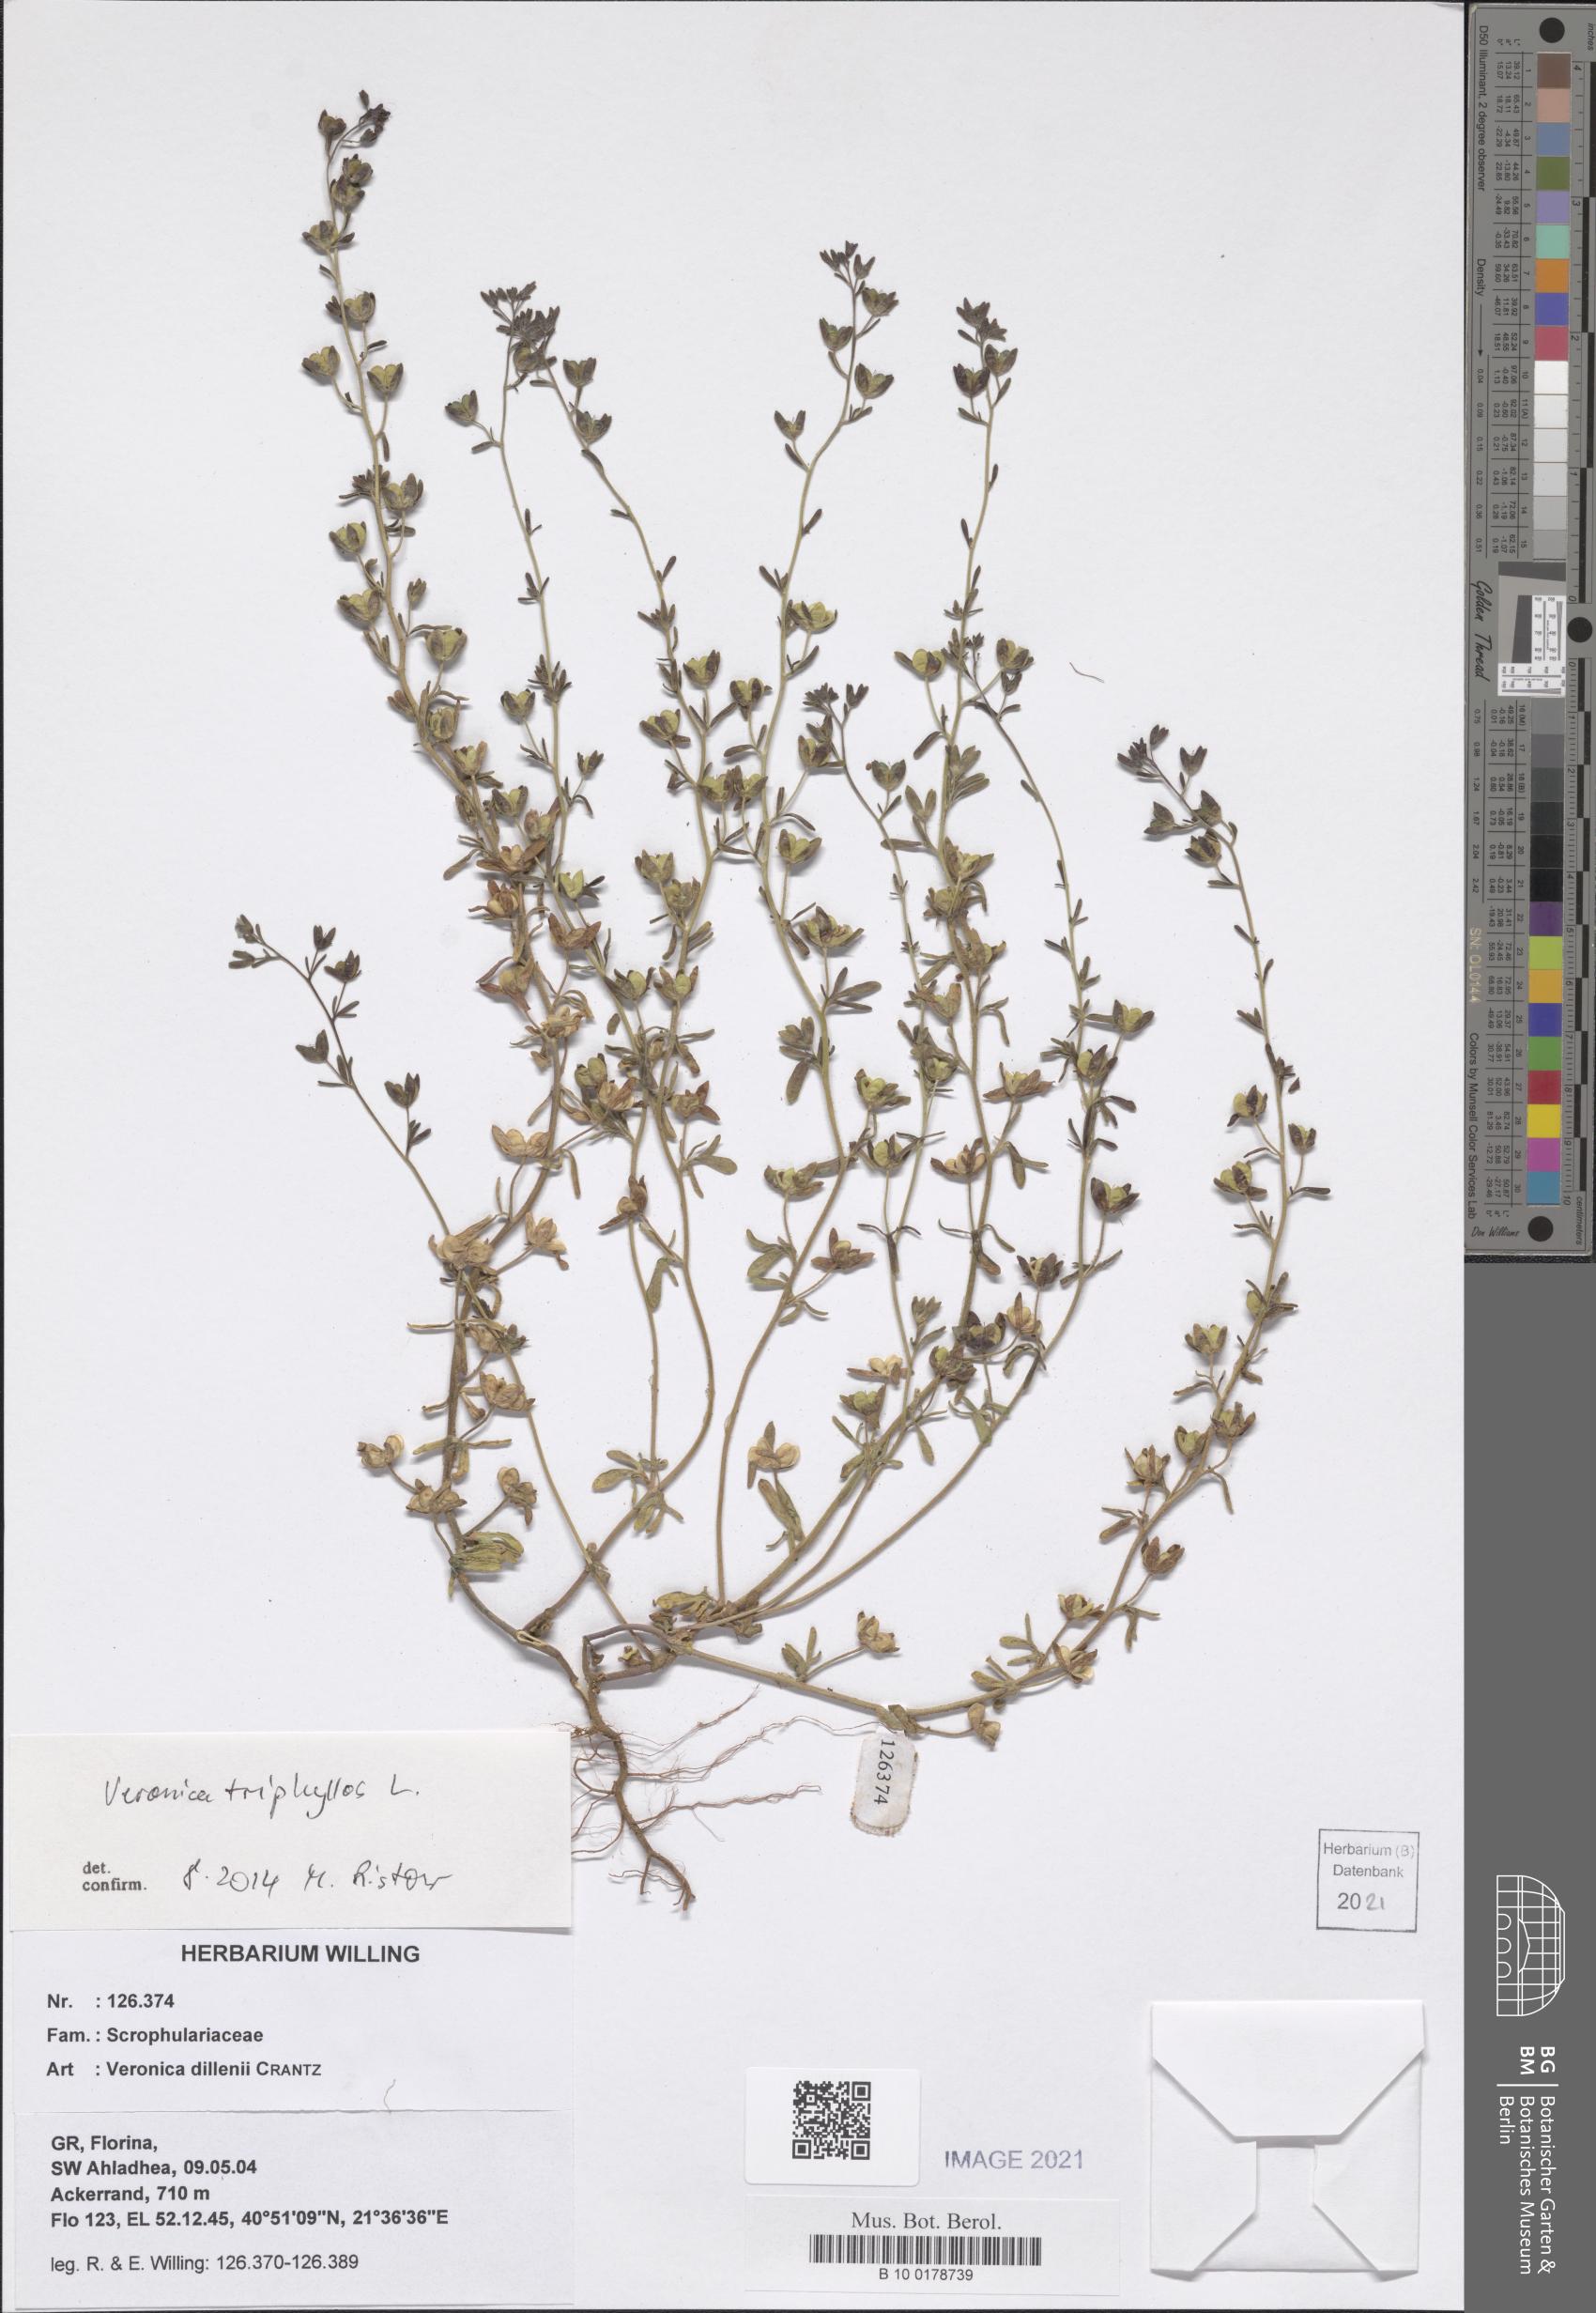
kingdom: Plantae
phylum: Tracheophyta
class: Magnoliopsida
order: Lamiales
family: Plantaginaceae
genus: Veronica
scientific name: Veronica triphyllos
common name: Fingered speedwell
